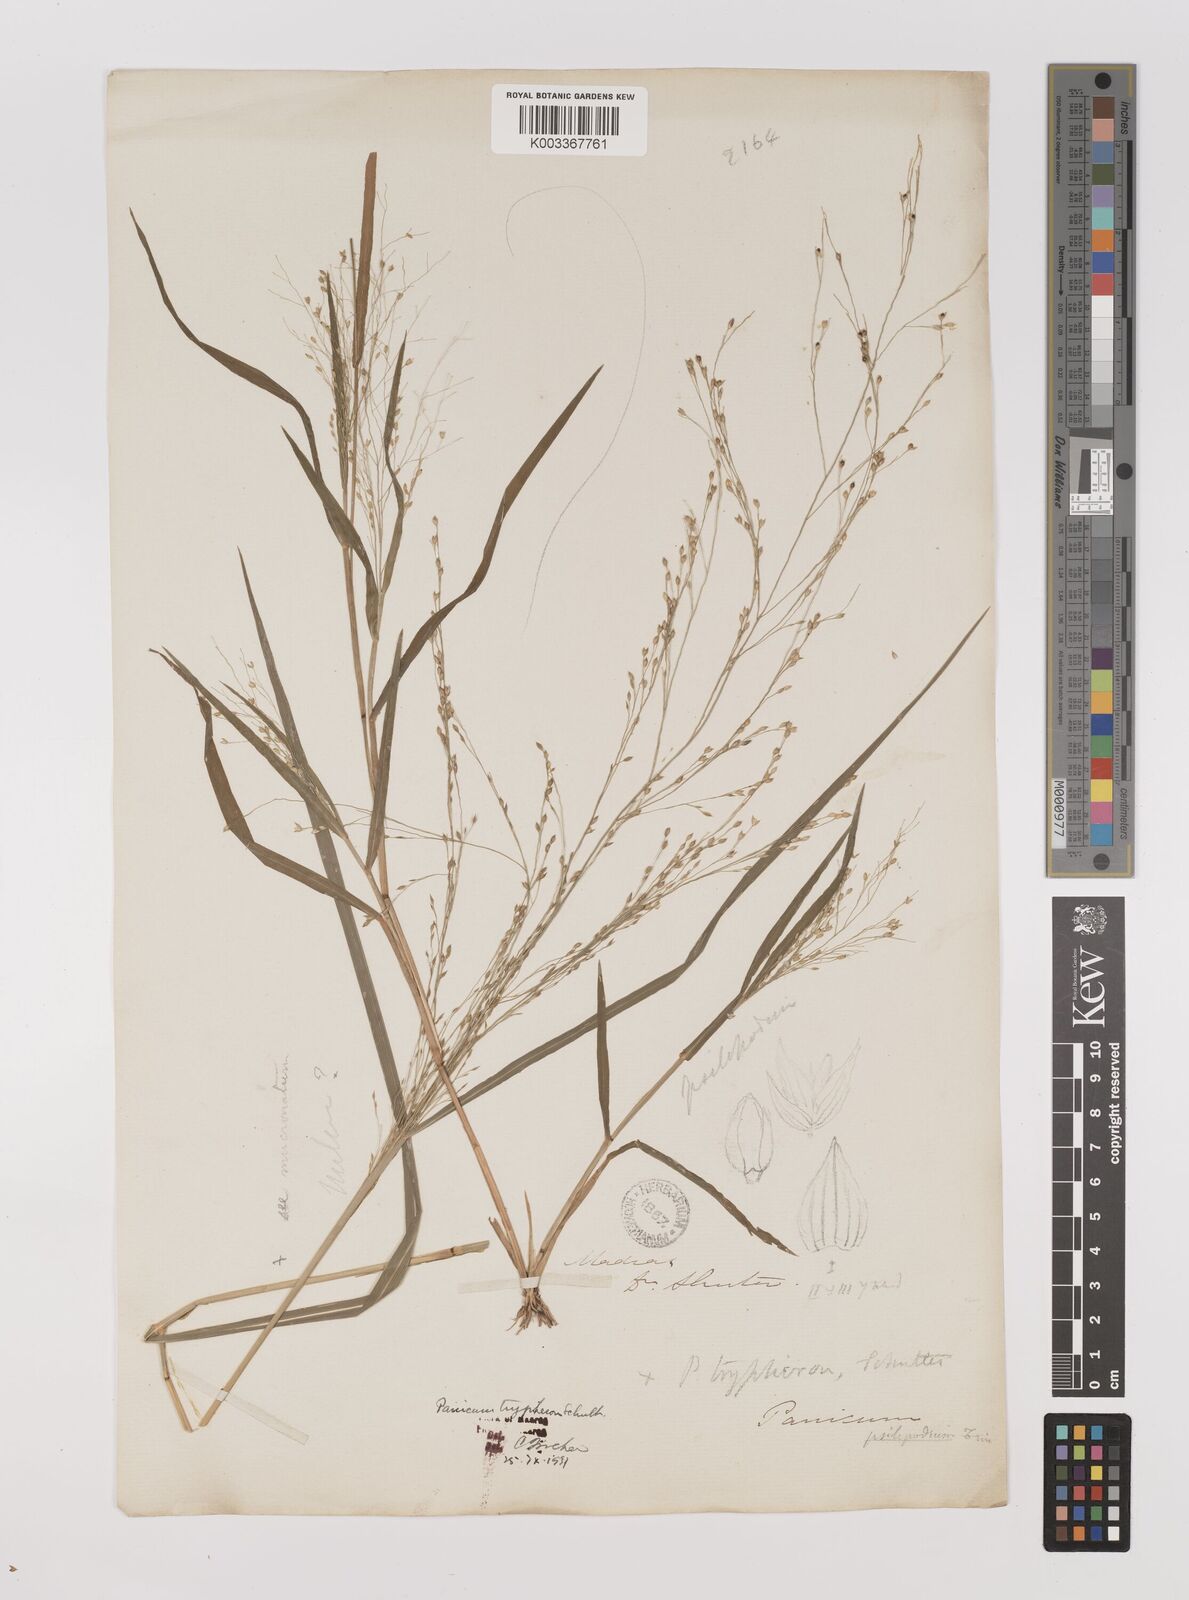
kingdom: Plantae
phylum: Tracheophyta
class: Liliopsida
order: Poales
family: Poaceae
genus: Panicum
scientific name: Panicum curviflorum
